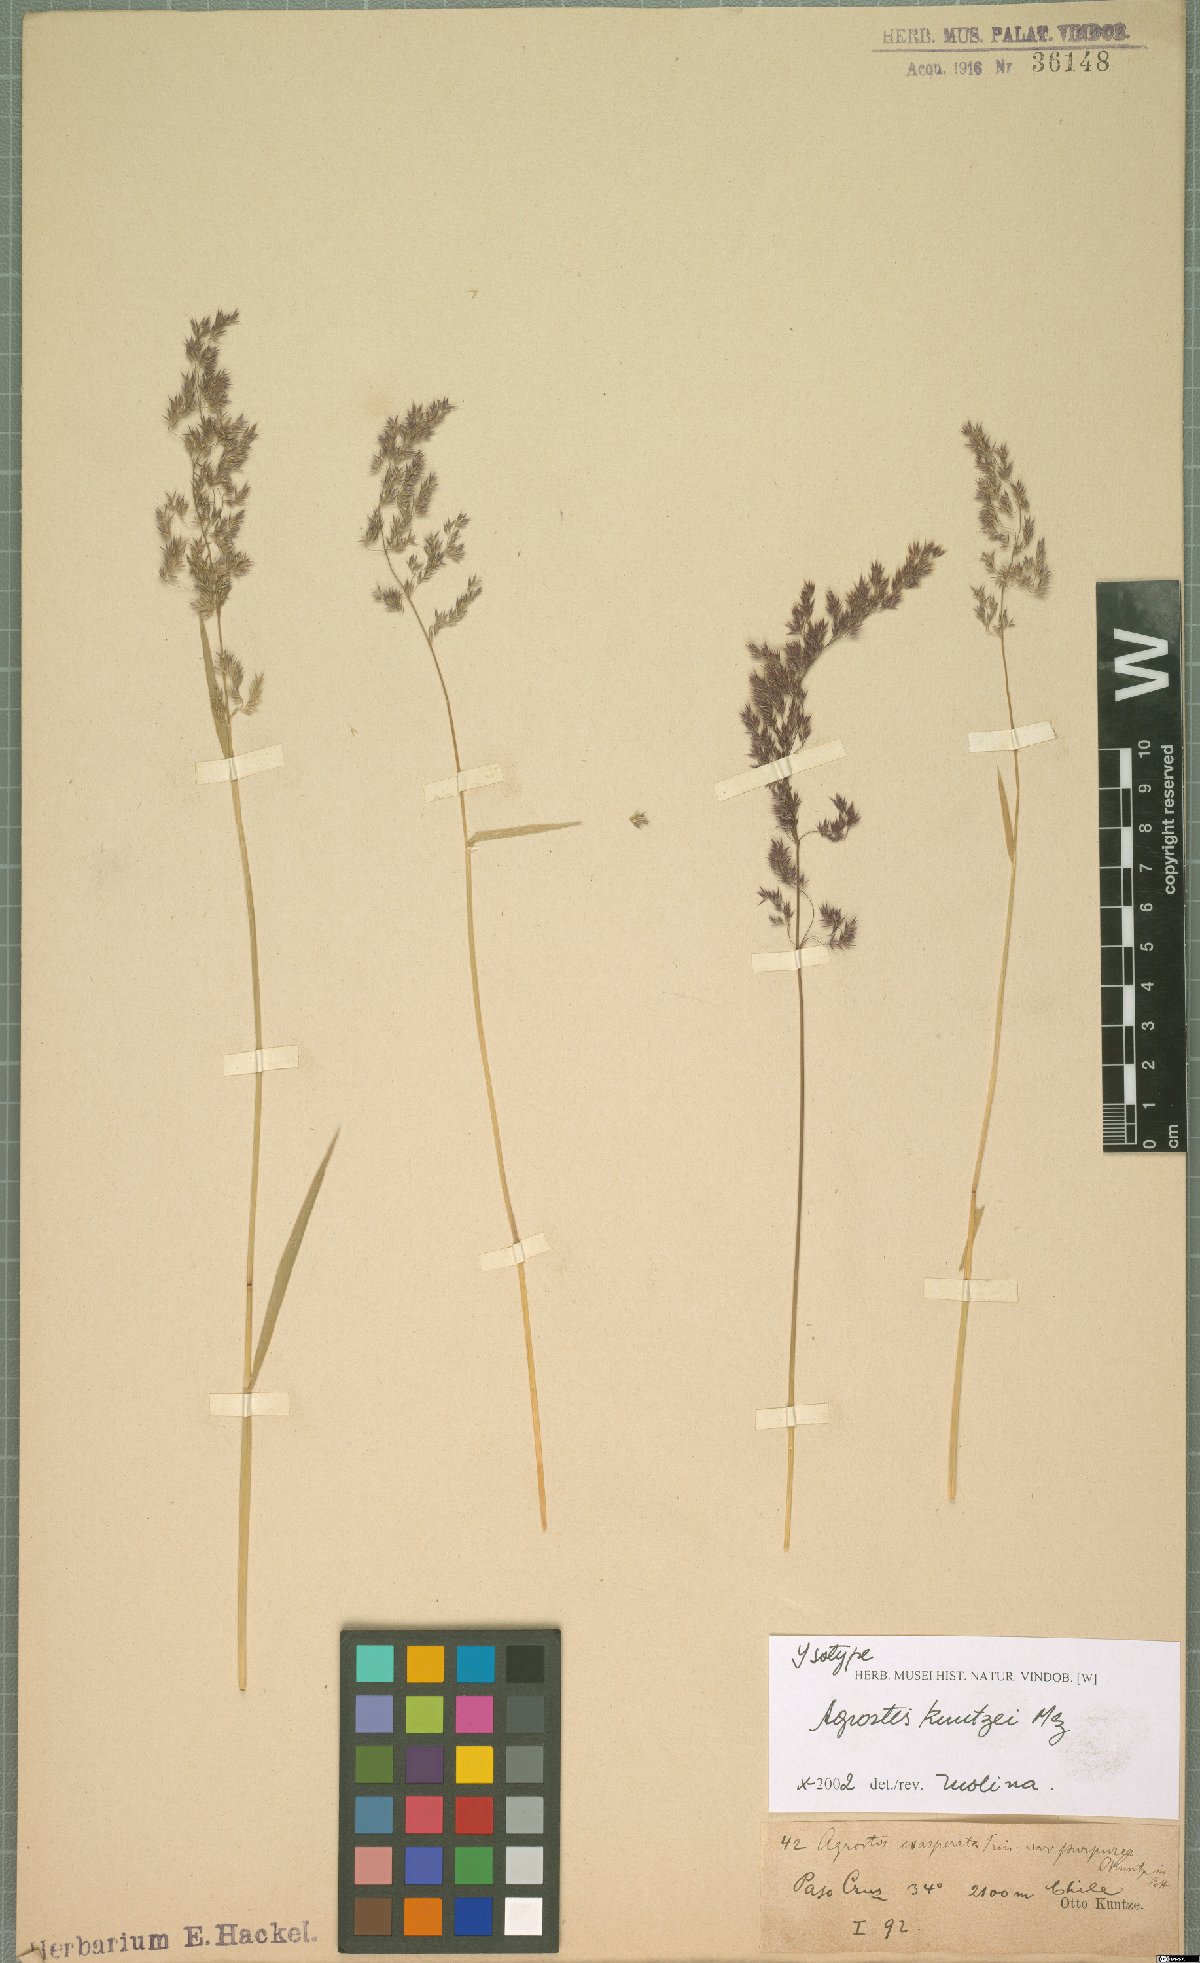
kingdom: Plantae
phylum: Tracheophyta
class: Liliopsida
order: Poales
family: Poaceae
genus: Polypogon
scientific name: Polypogon exasperatus
